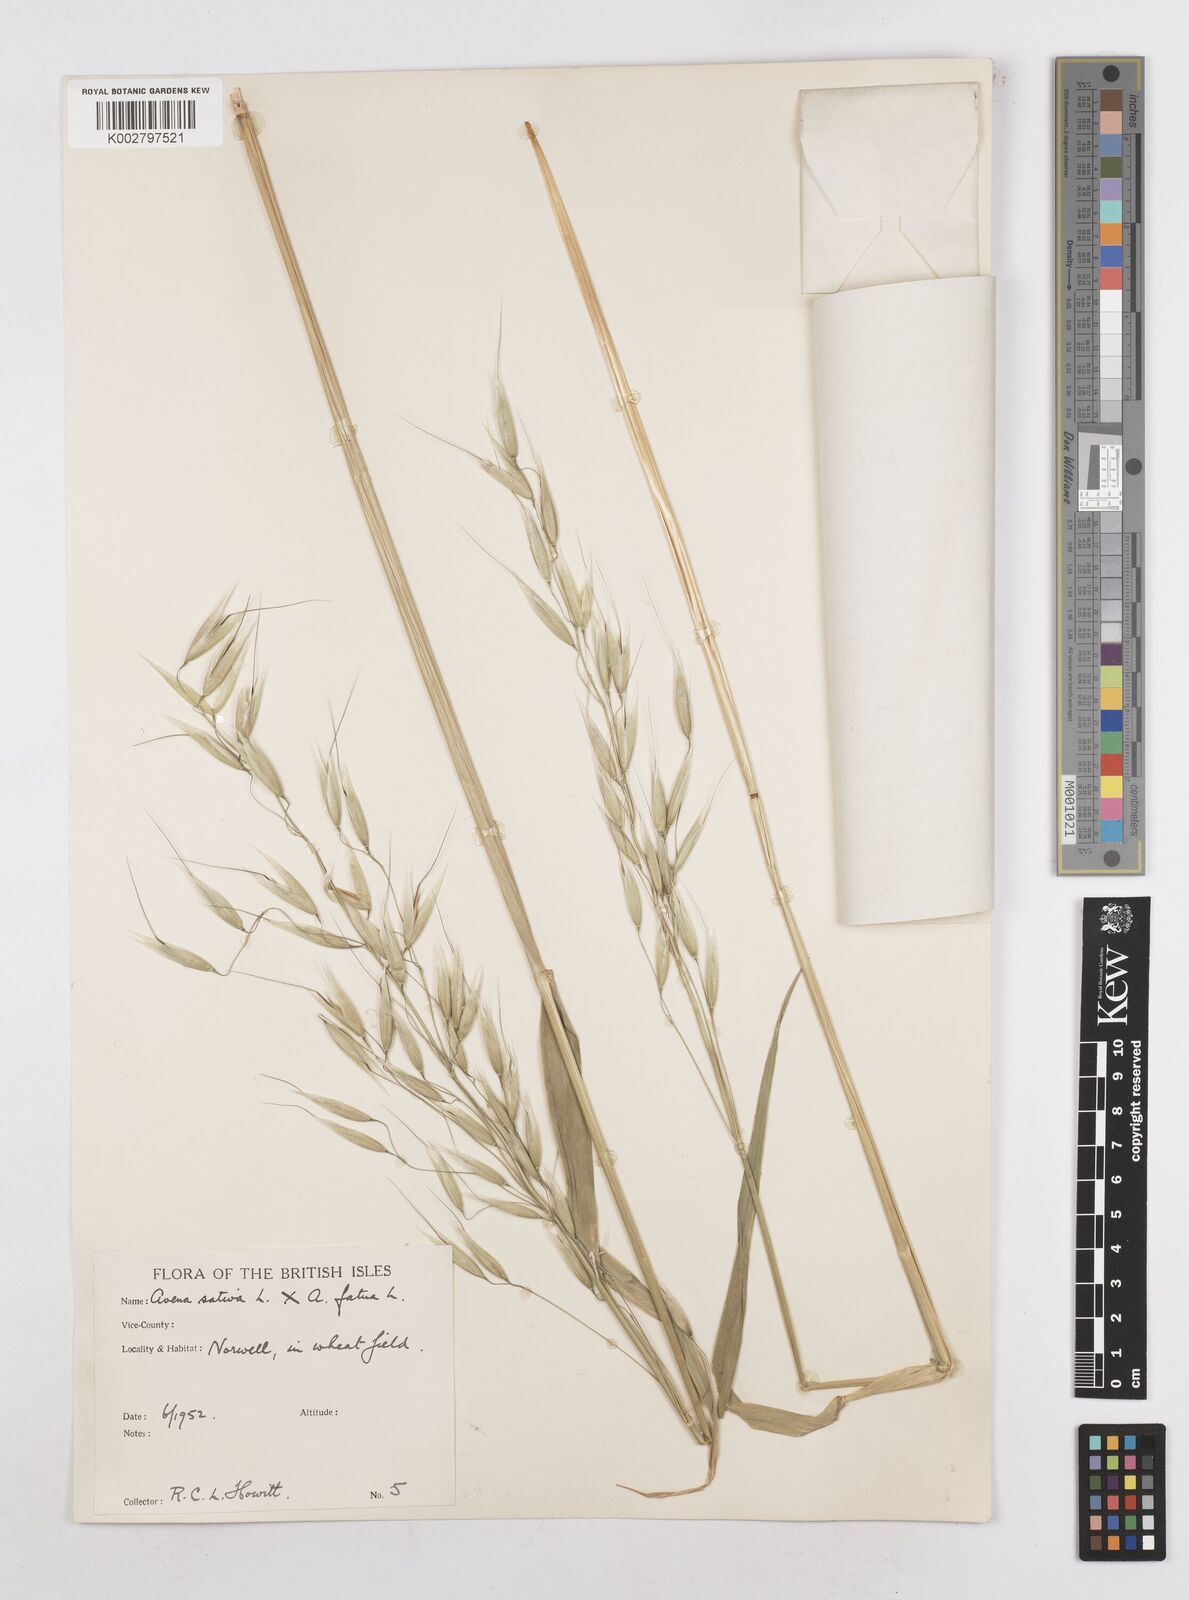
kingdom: Plantae
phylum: Tracheophyta
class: Liliopsida
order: Poales
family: Poaceae
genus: Avena
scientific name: Avena fatua
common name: Wild oat
